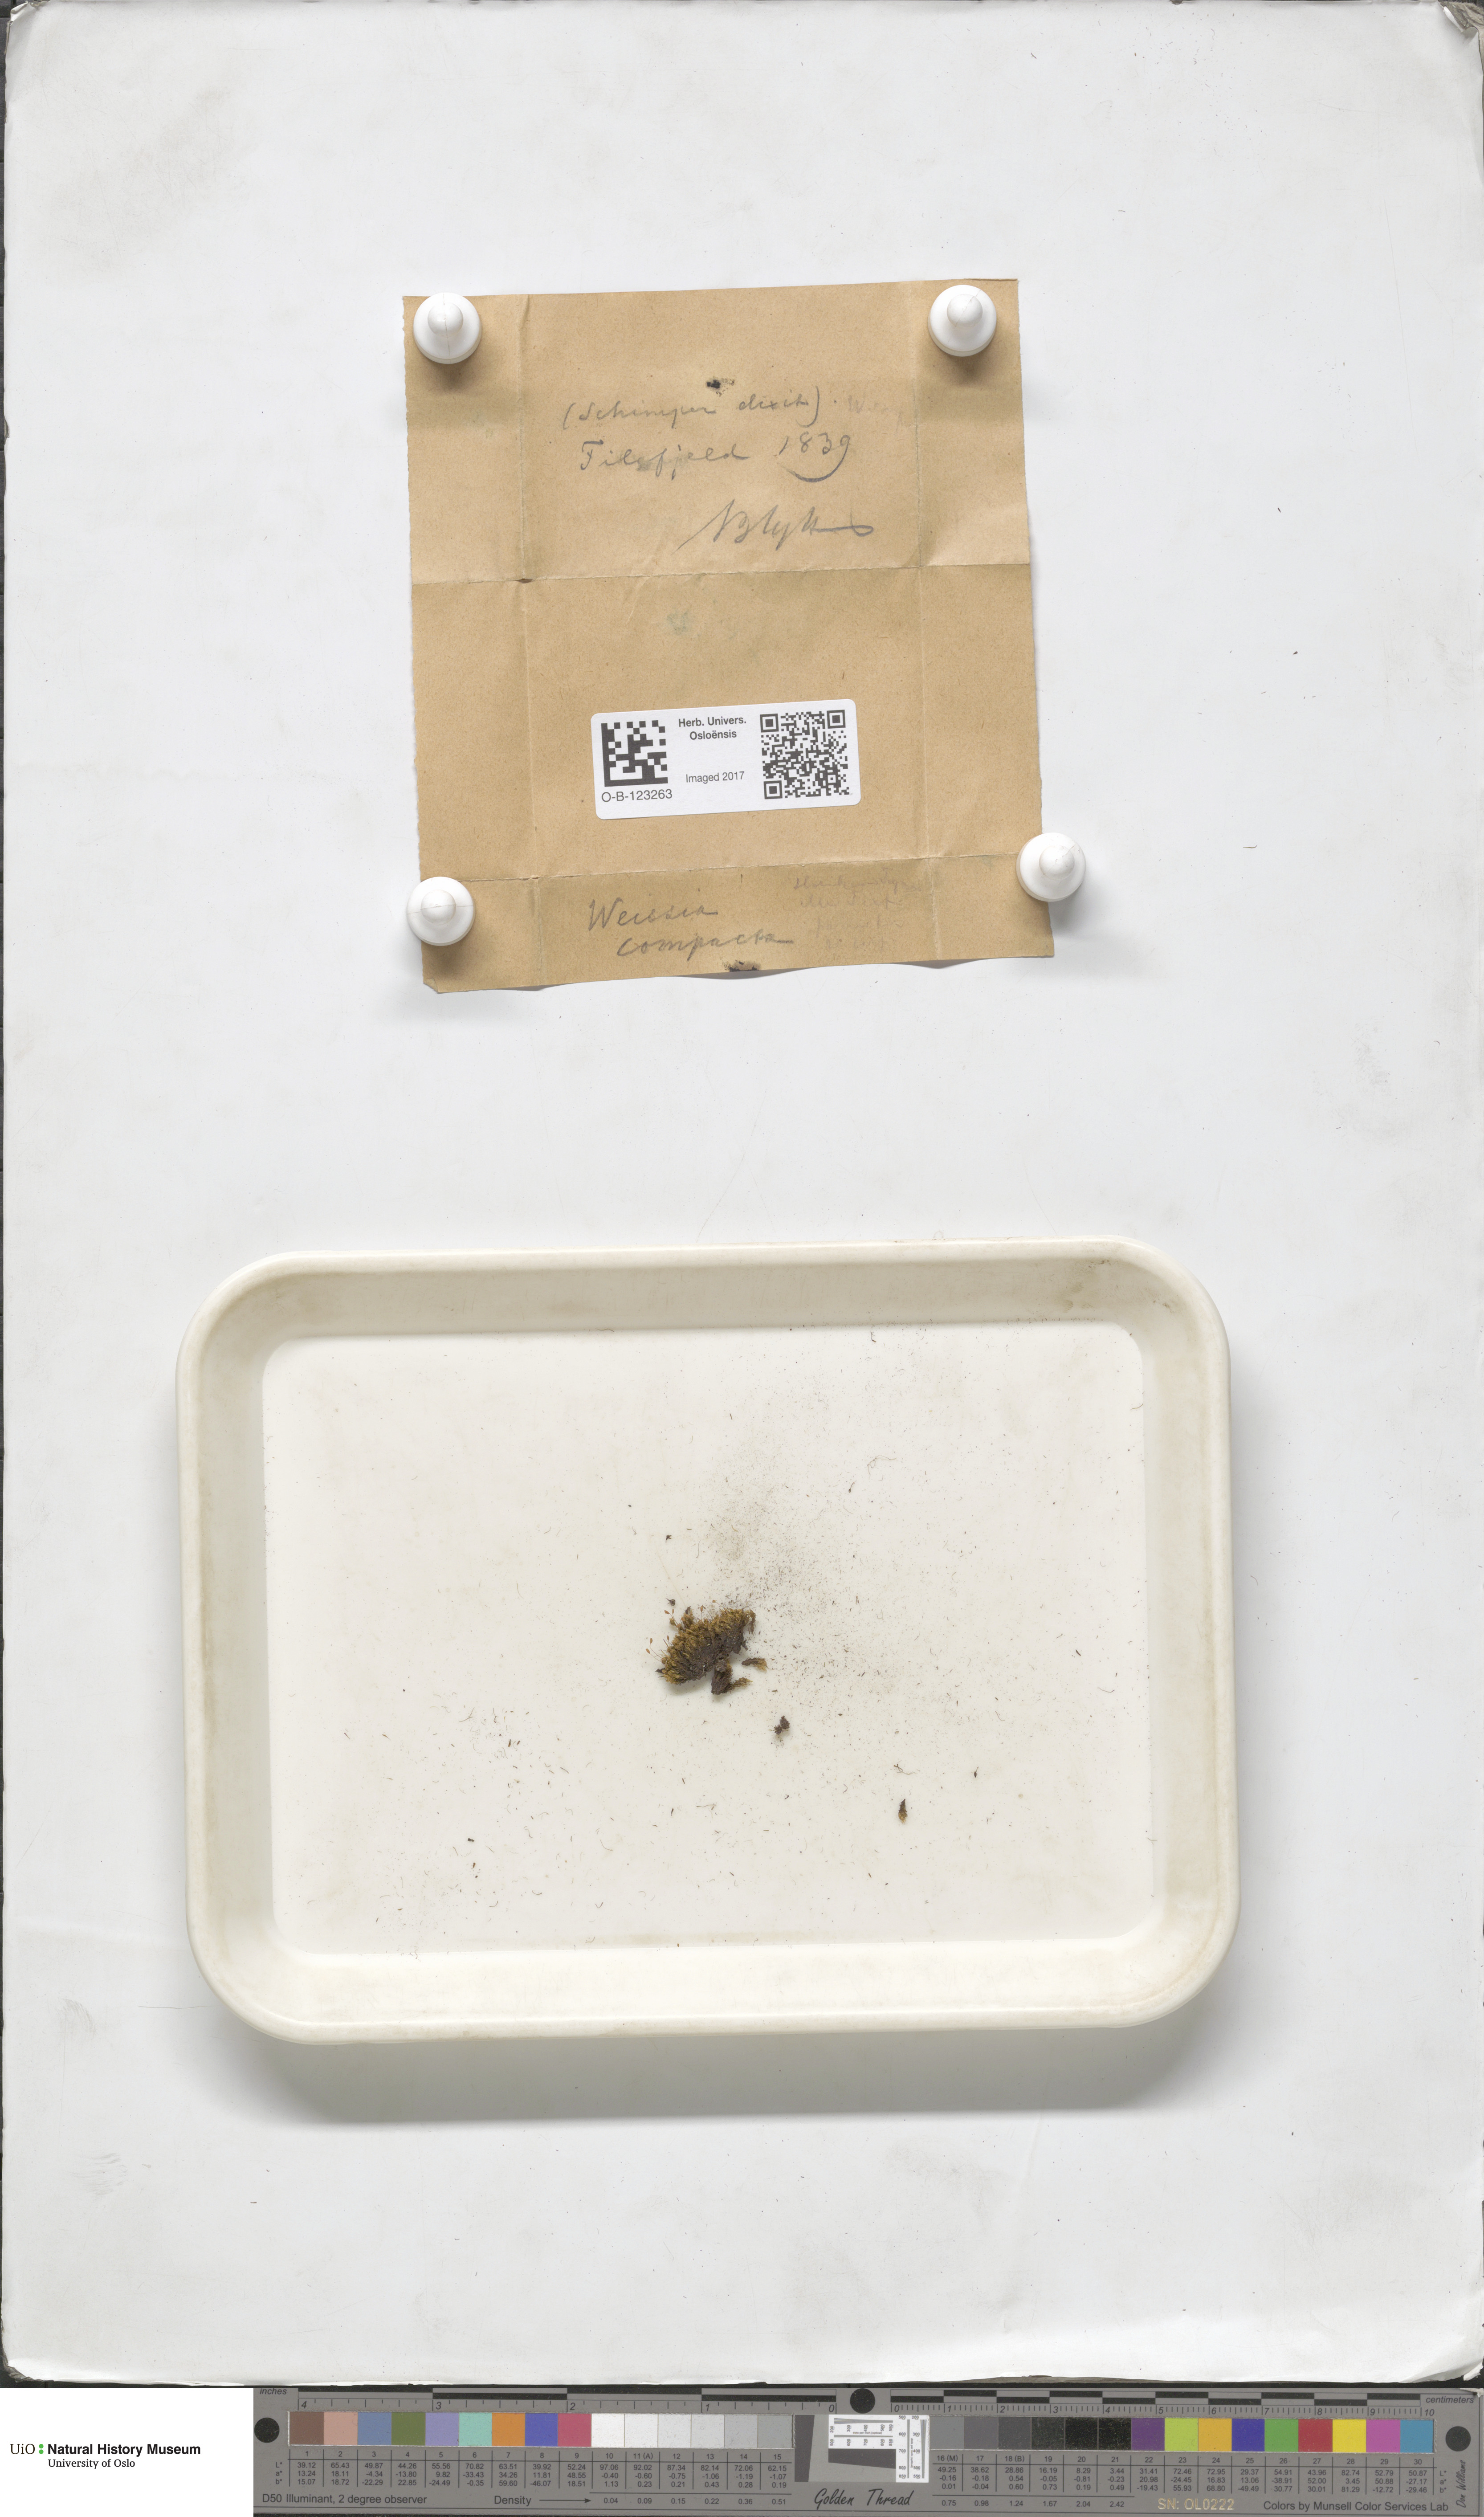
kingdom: Plantae
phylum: Bryophyta
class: Bryopsida
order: Scouleriales
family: Hymenolomataceae
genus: Hymenoloma
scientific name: Hymenoloma compactum
